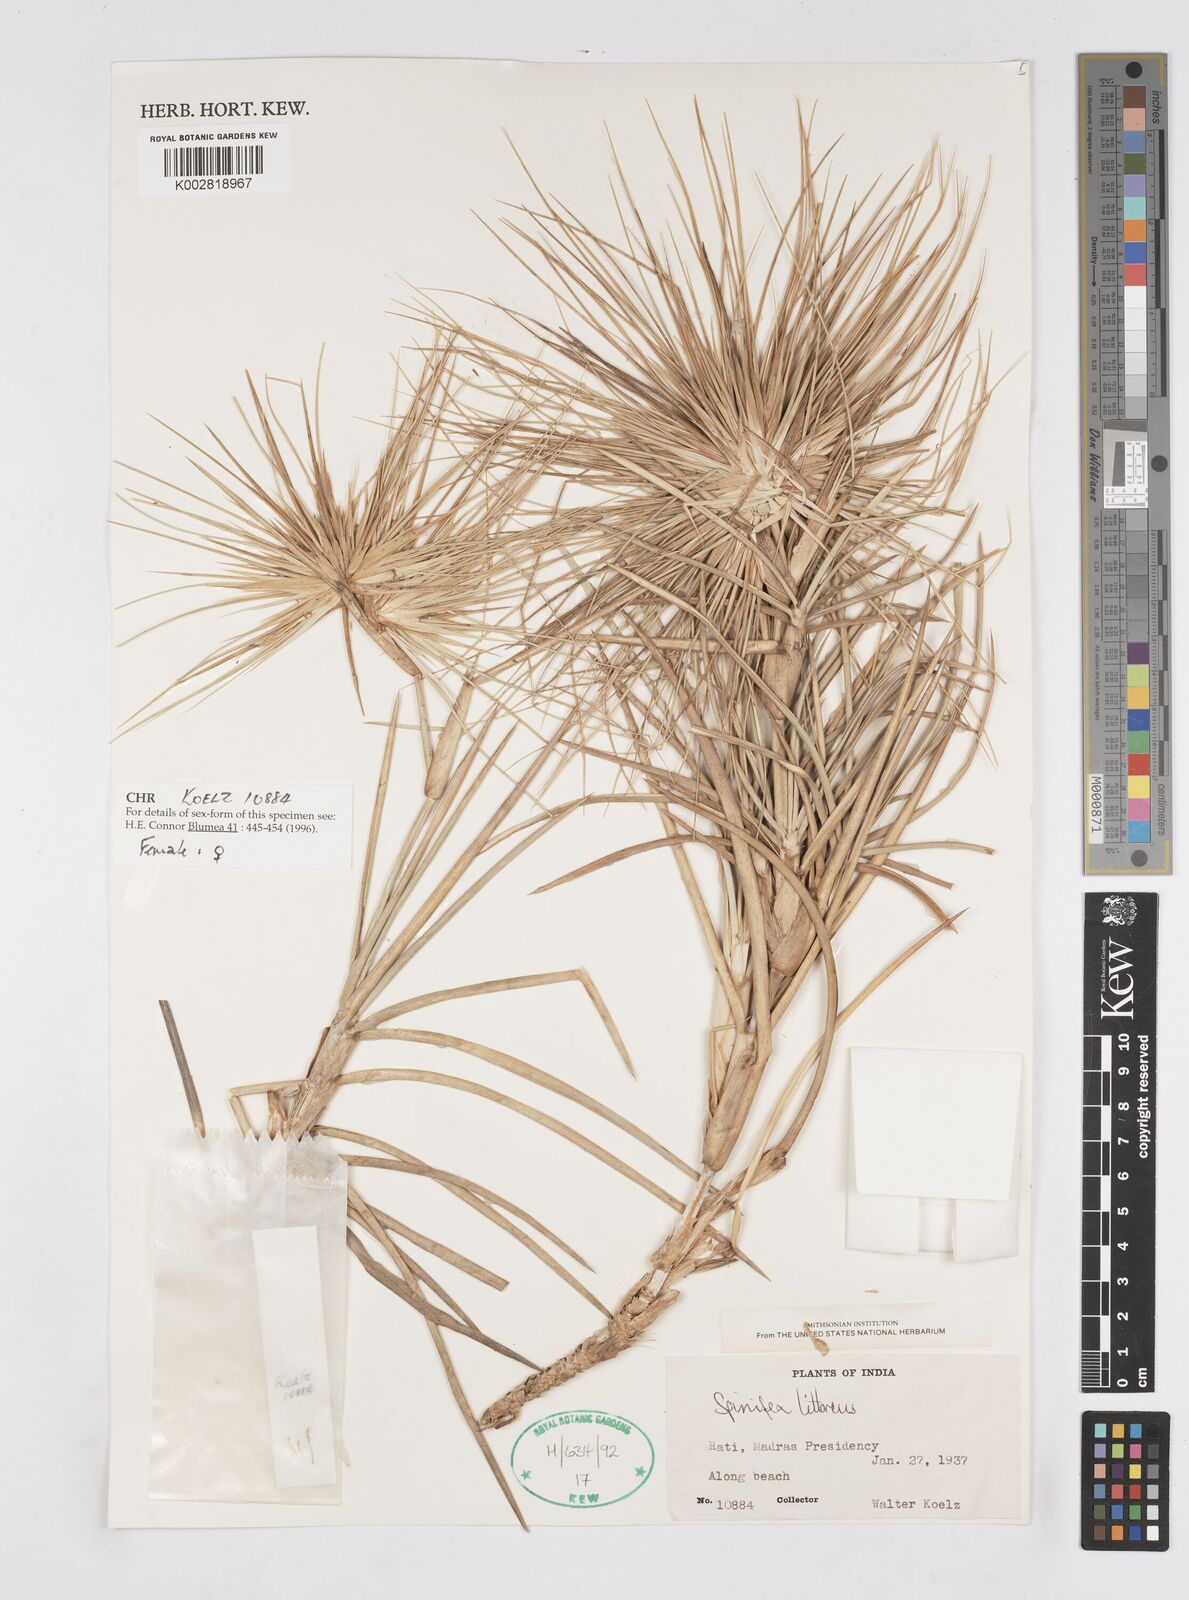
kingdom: Plantae
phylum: Tracheophyta
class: Liliopsida
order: Poales
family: Poaceae
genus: Spinifex
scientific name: Spinifex littoreus
